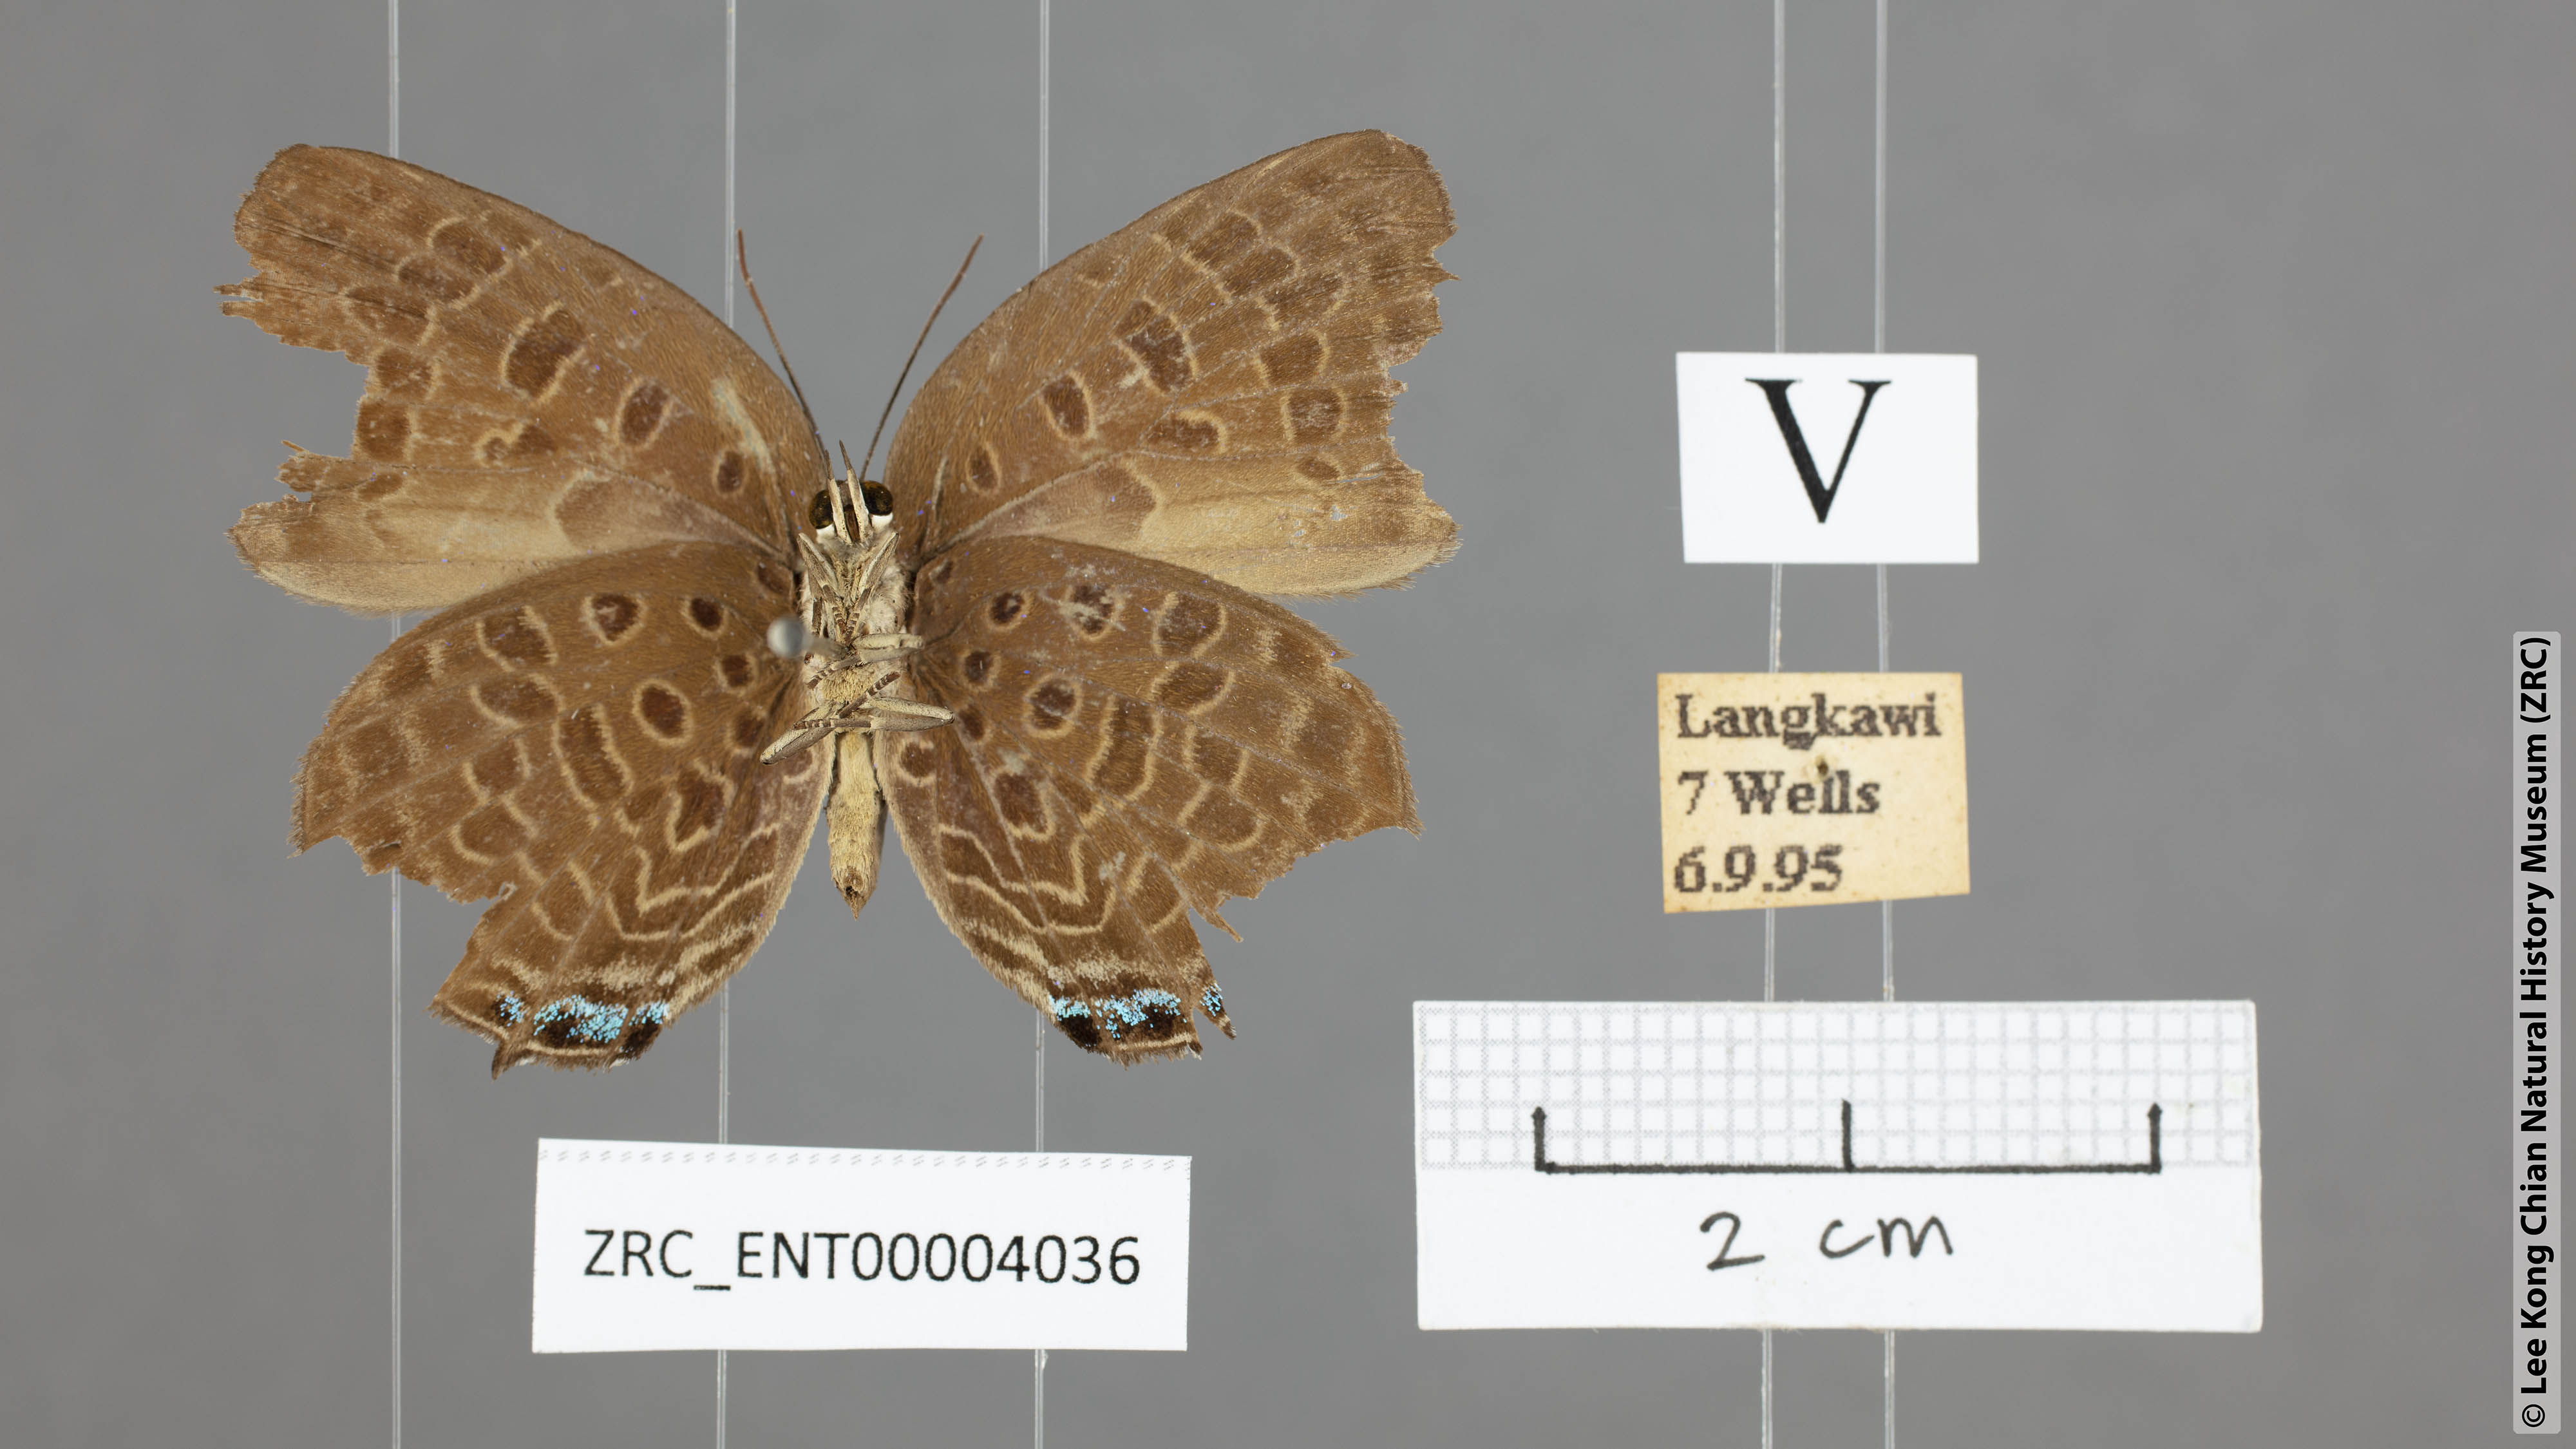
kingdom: Animalia
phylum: Arthropoda
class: Insecta
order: Lepidoptera
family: Lycaenidae
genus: Arhopala
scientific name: Arhopala pseudomuta
